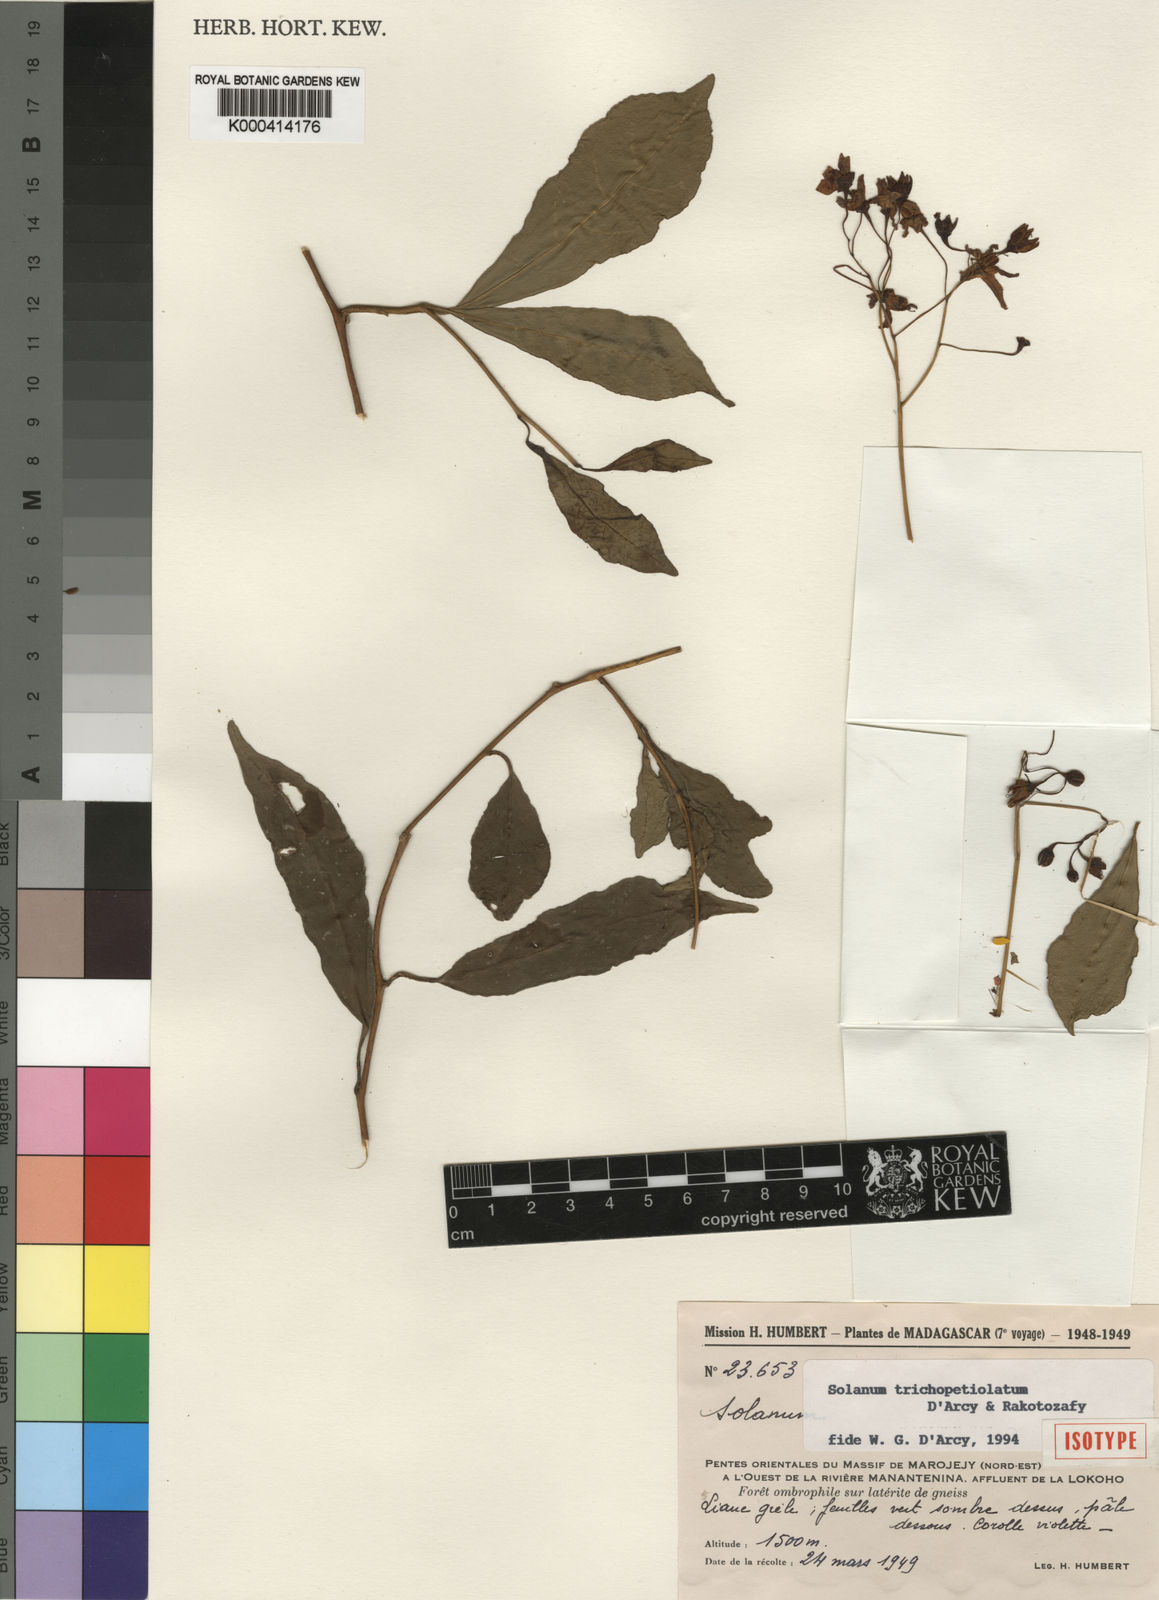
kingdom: Plantae
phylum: Tracheophyta
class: Magnoliopsida
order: Solanales
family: Solanaceae
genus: Solanum
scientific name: Solanum trichopetiolatum
